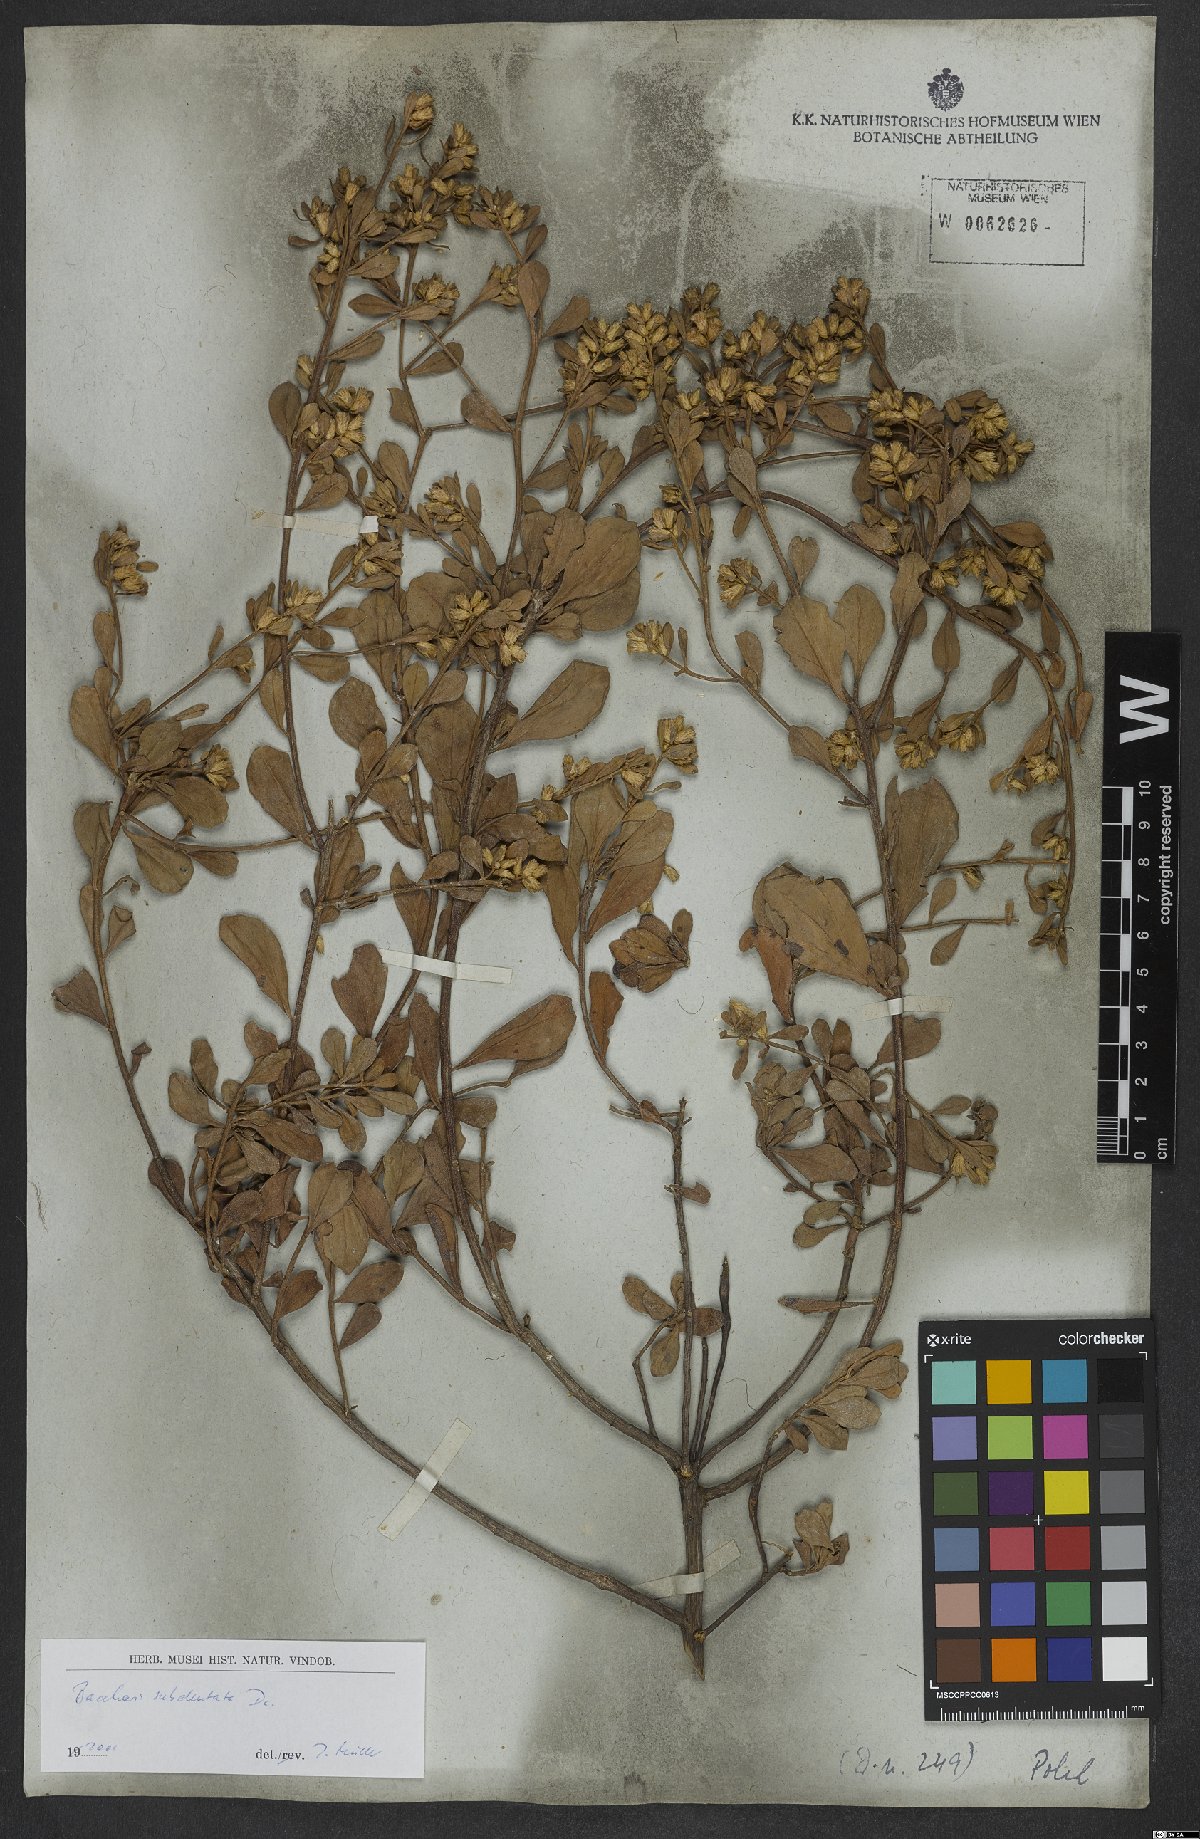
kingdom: Plantae
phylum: Tracheophyta
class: Magnoliopsida
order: Asterales
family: Asteraceae
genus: Baccharis
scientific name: Baccharis subdentata
